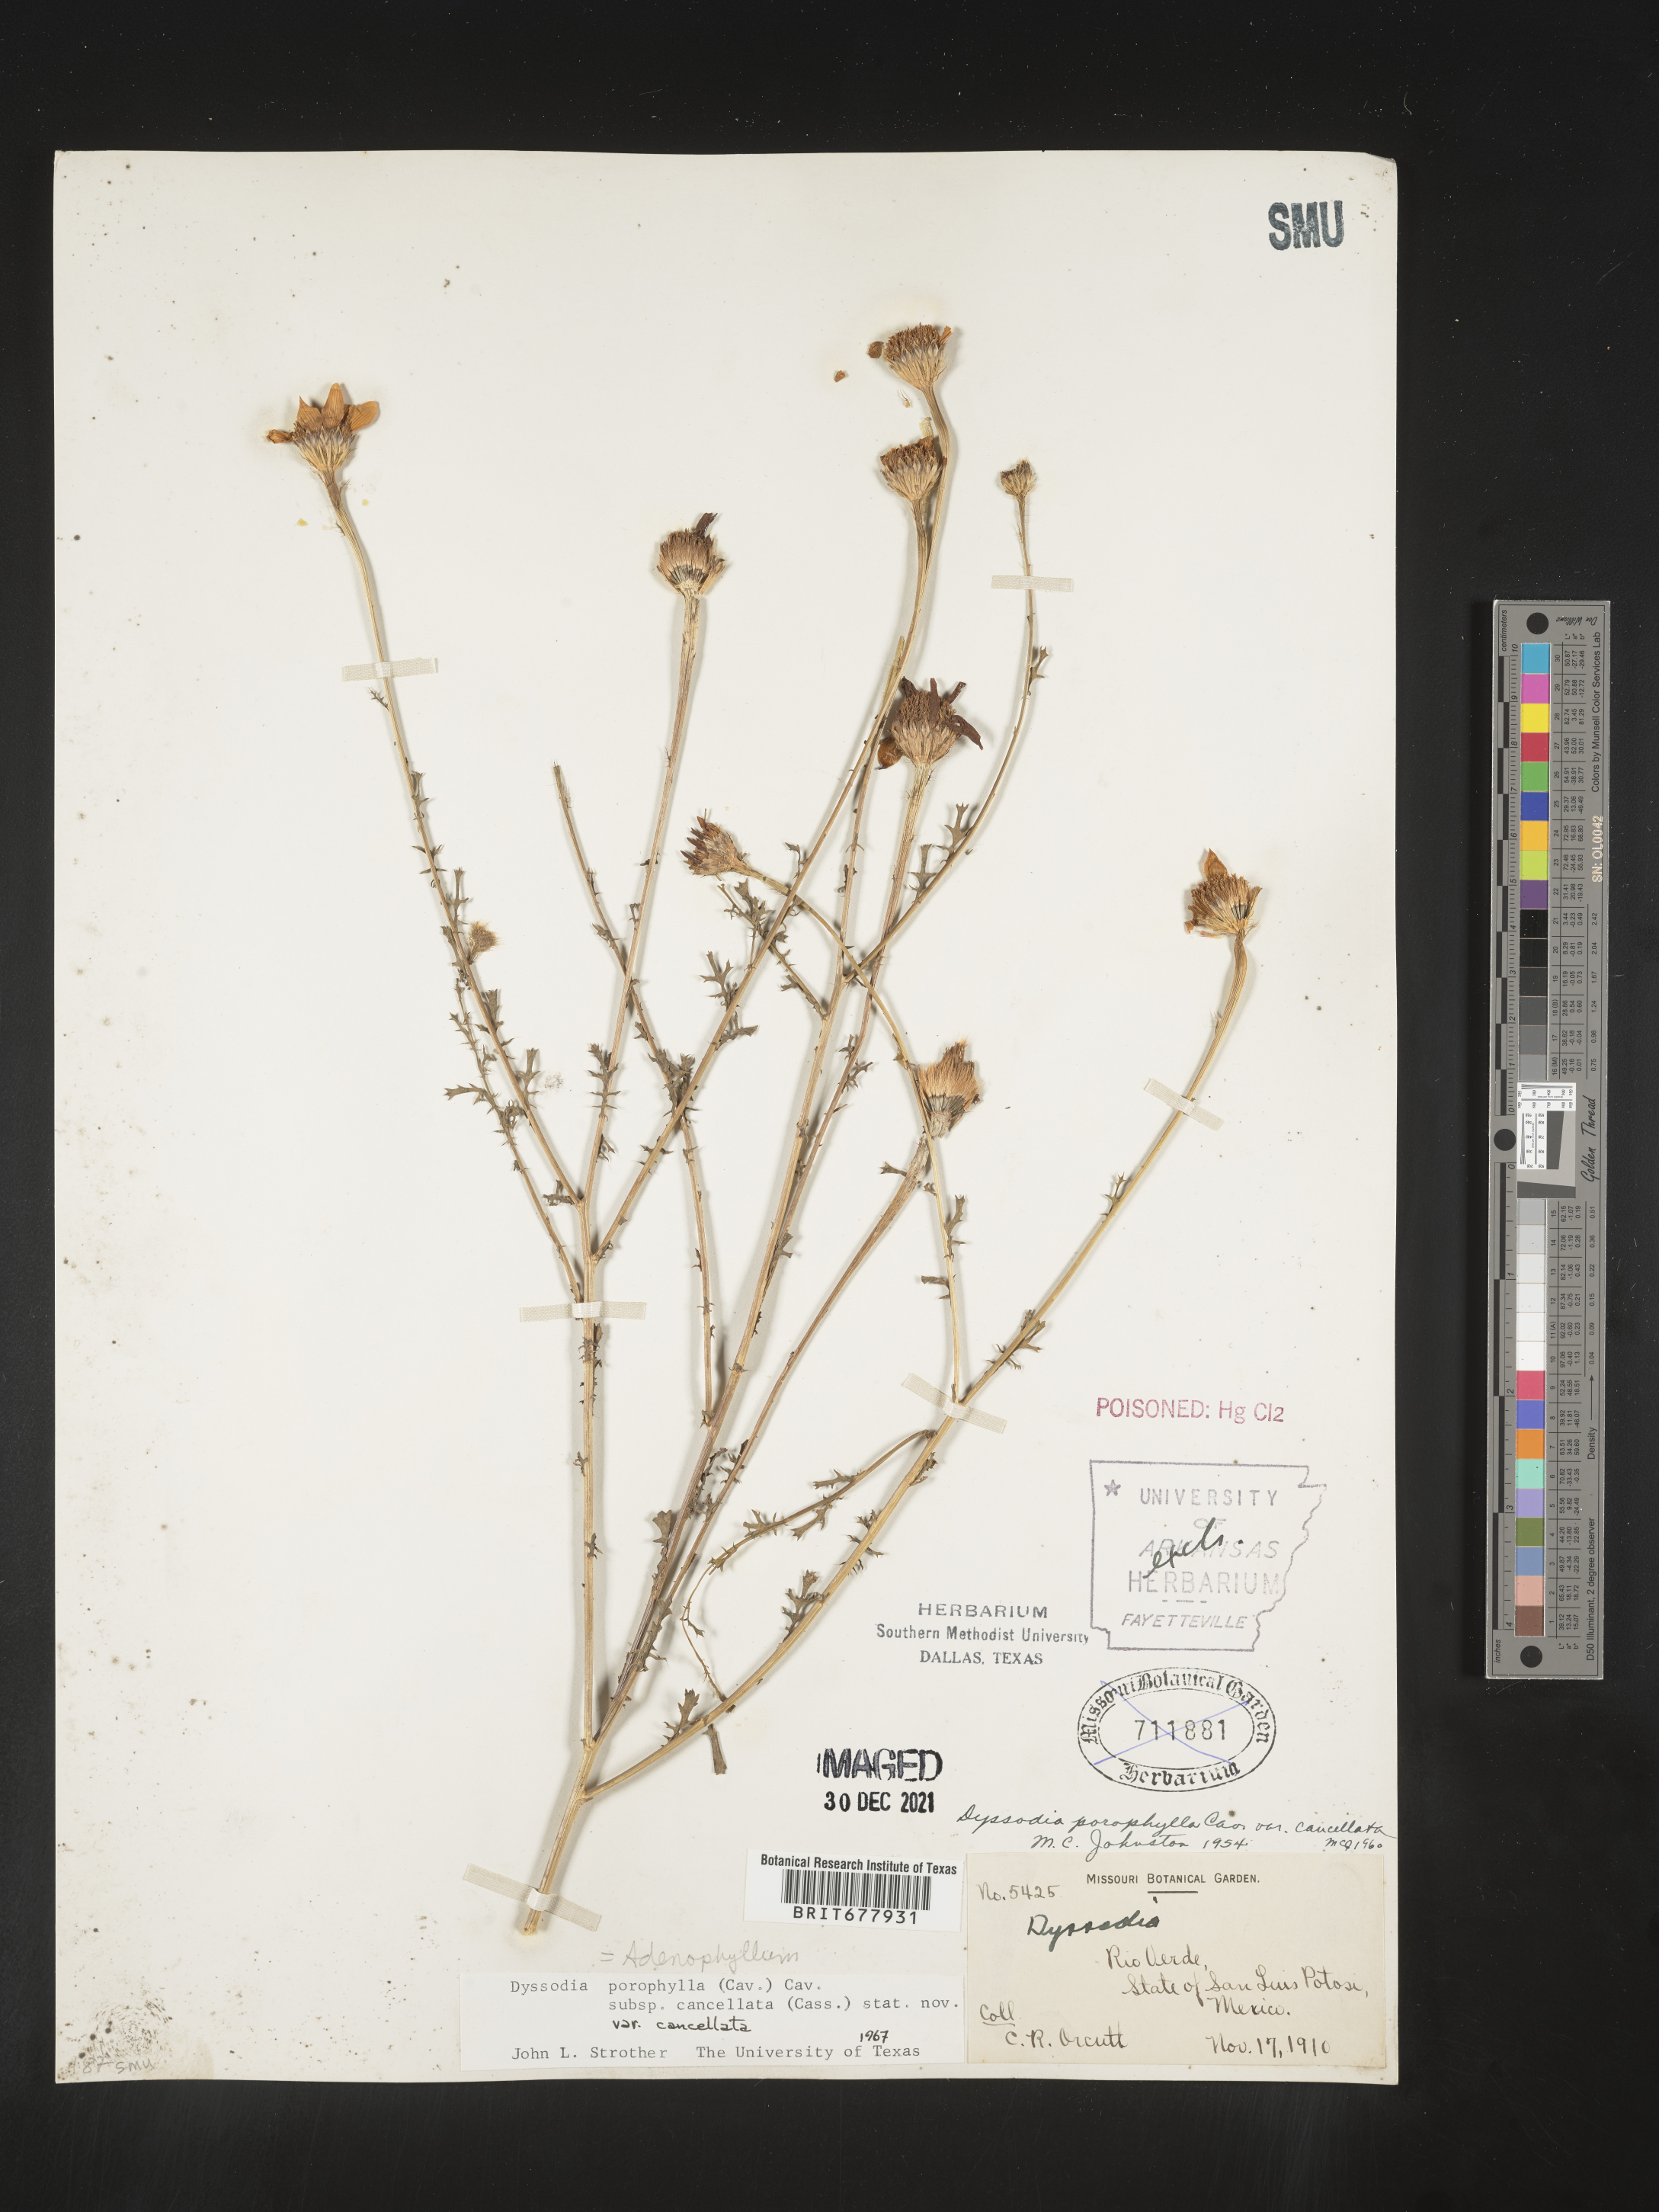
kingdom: Plantae
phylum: Tracheophyta
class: Magnoliopsida
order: Asterales
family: Asteraceae
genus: Adenophyllum
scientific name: Adenophyllum porophyllum
